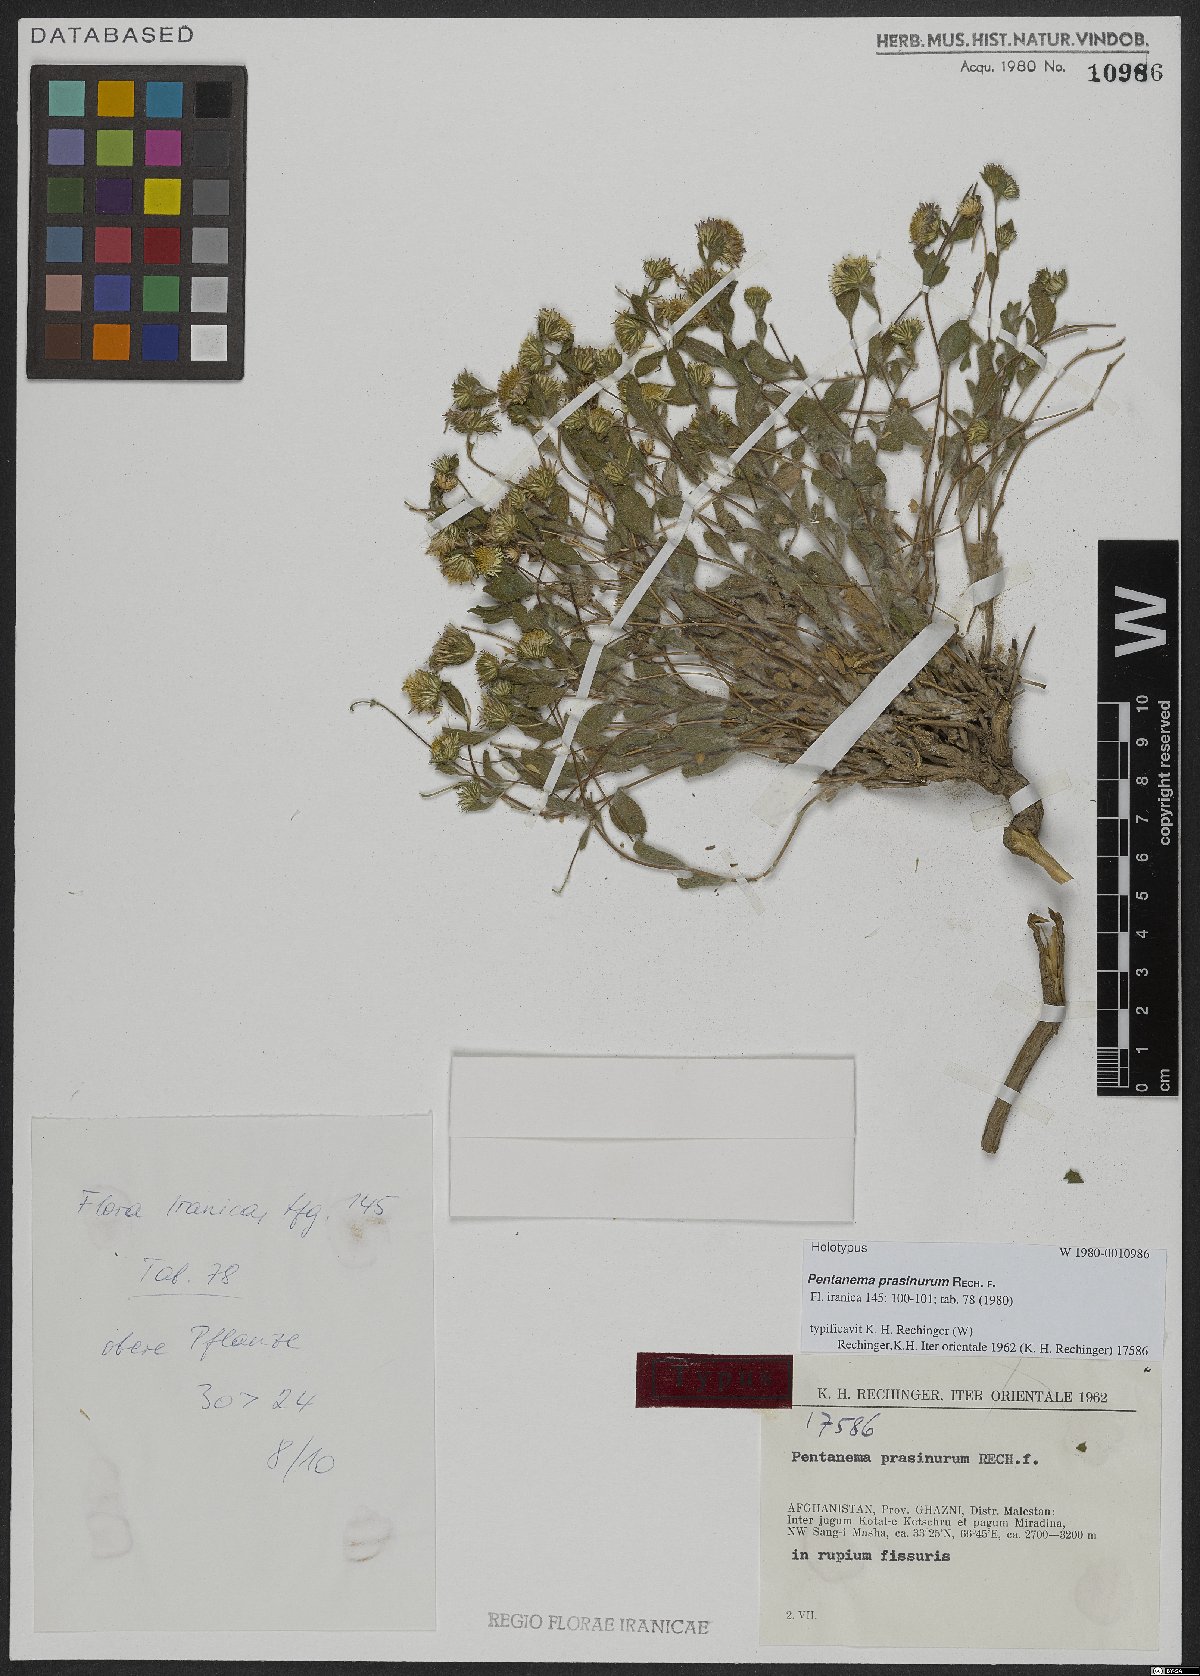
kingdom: Plantae
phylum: Tracheophyta
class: Magnoliopsida
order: Asterales
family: Asteraceae
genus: Pentanema
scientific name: Pentanema prasinurum
